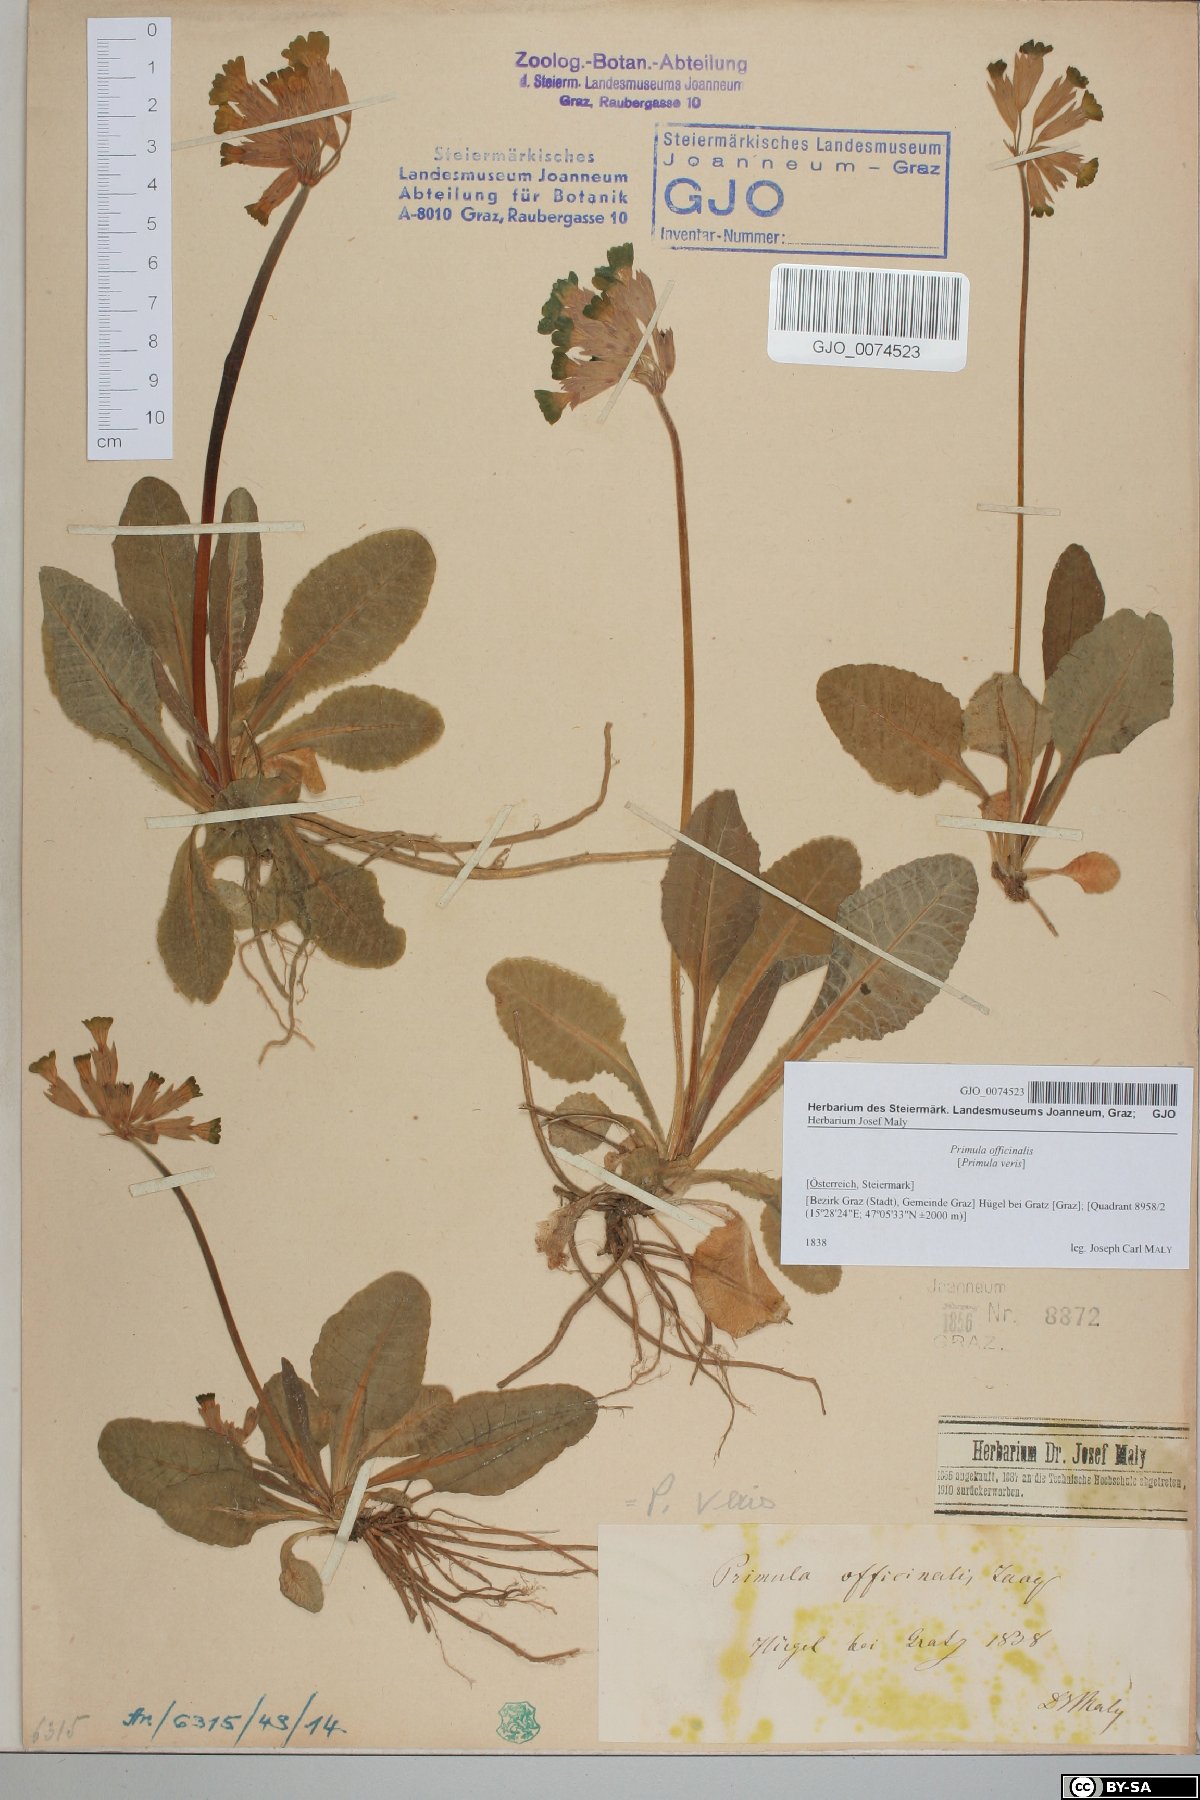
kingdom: Plantae
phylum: Tracheophyta
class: Magnoliopsida
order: Ericales
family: Primulaceae
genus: Primula
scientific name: Primula veris
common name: Cowslip
